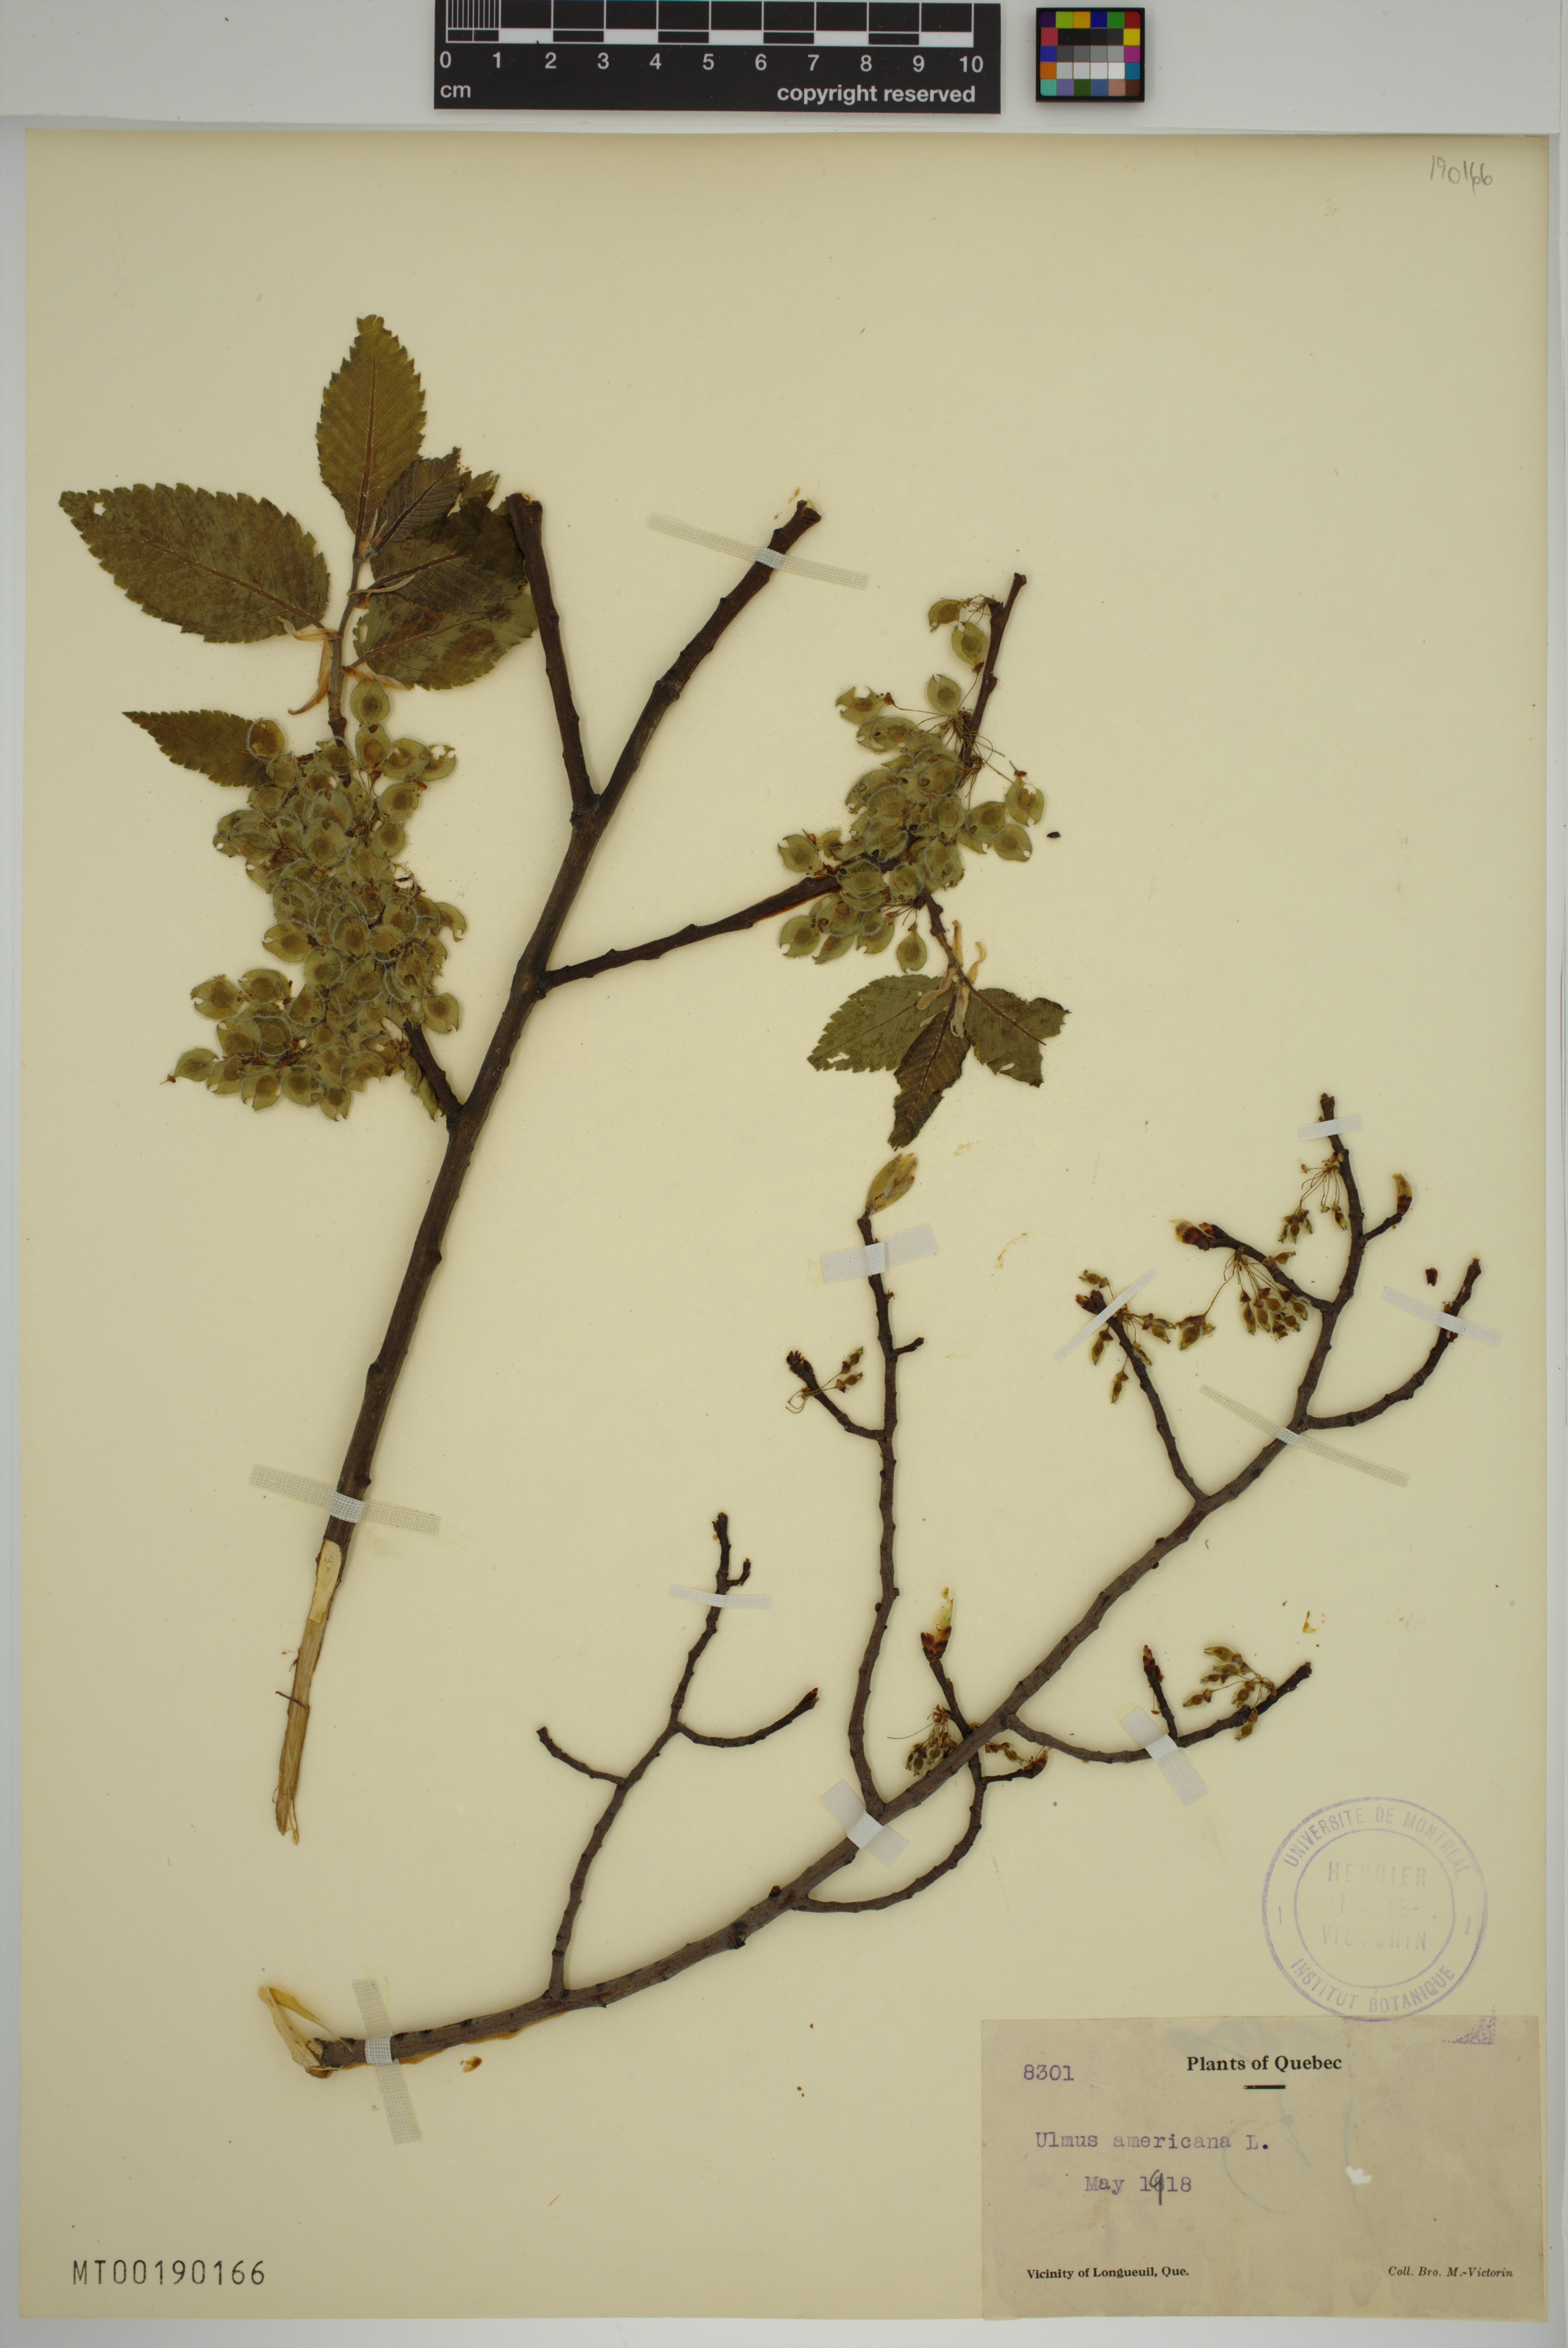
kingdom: Plantae
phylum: Tracheophyta
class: Magnoliopsida
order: Rosales
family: Ulmaceae
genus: Ulmus
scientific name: Ulmus americana
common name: American elm
